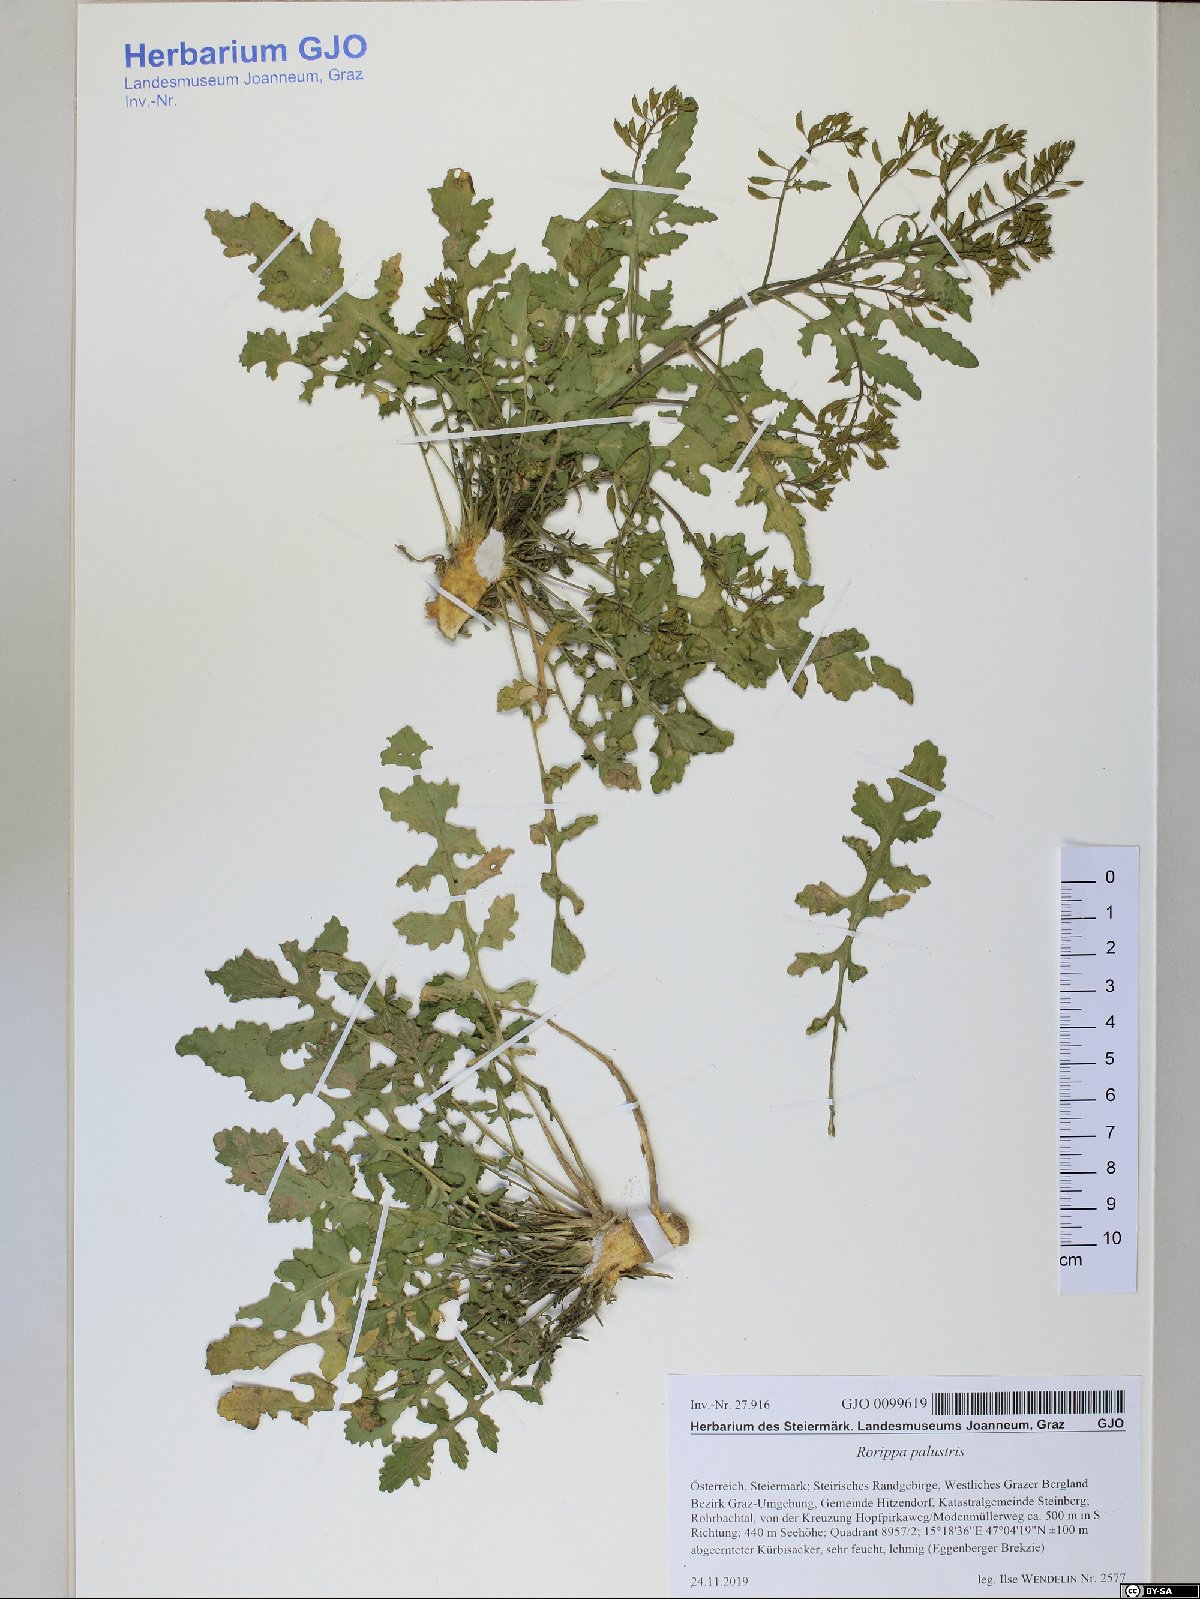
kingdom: Plantae
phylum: Tracheophyta
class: Magnoliopsida
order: Brassicales
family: Brassicaceae
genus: Rorippa
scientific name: Rorippa palustris
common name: Marsh yellow-cress
